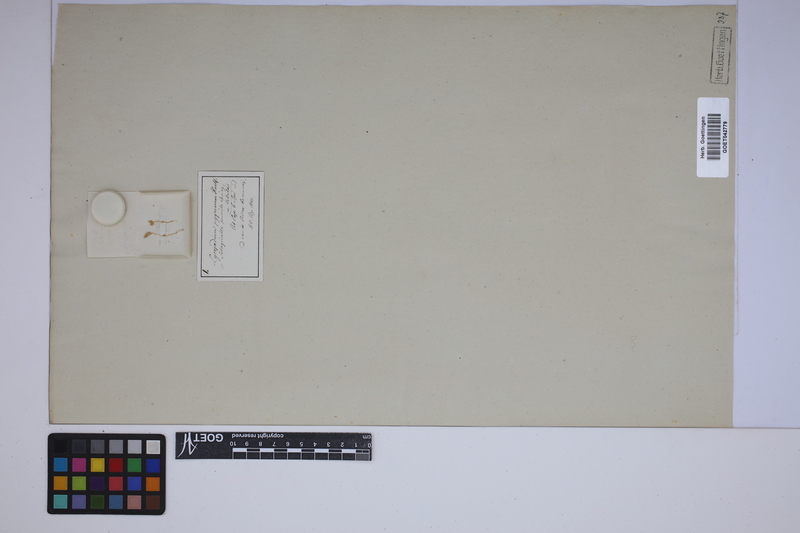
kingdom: Plantae
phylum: Tracheophyta
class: Lycopodiopsida
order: Selaginellales
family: Selaginellaceae
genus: Selaginella
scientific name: Selaginella pygmaea
